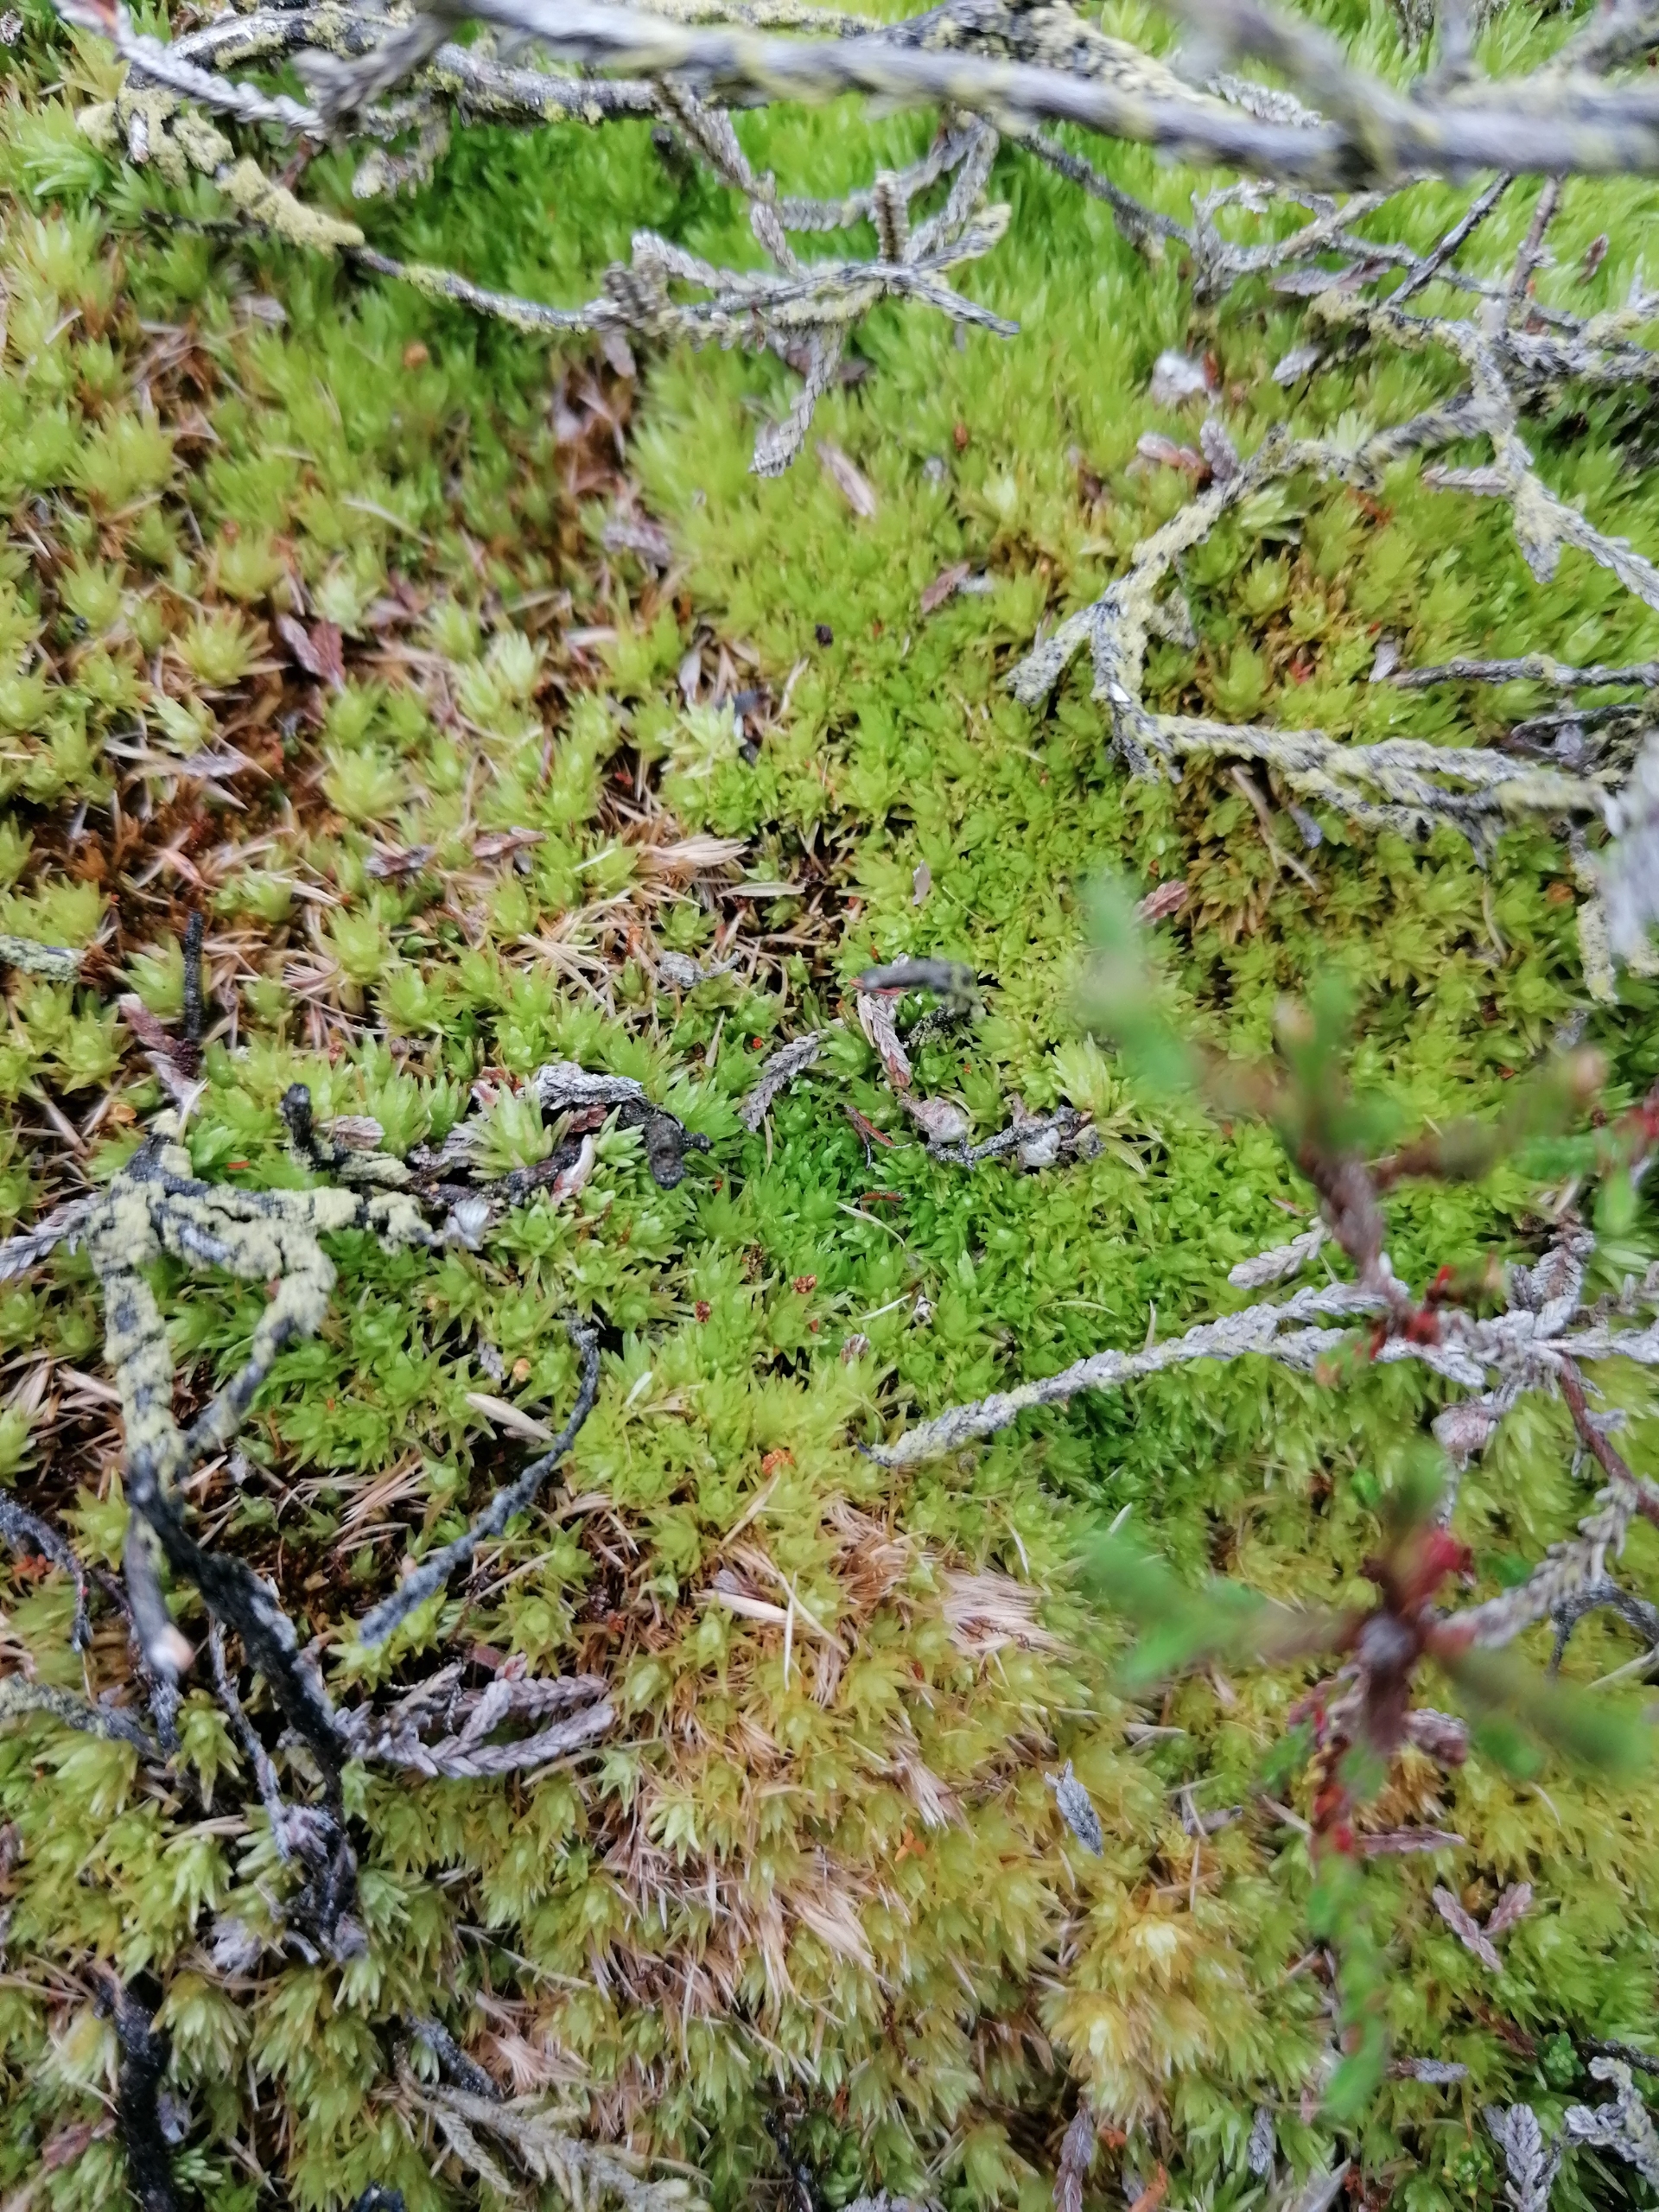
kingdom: Plantae
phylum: Bryophyta
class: Bryopsida
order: Dicranales
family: Leucobryaceae
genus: Leucobryum
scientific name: Leucobryum glaucum
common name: Almindelig hvidmos
